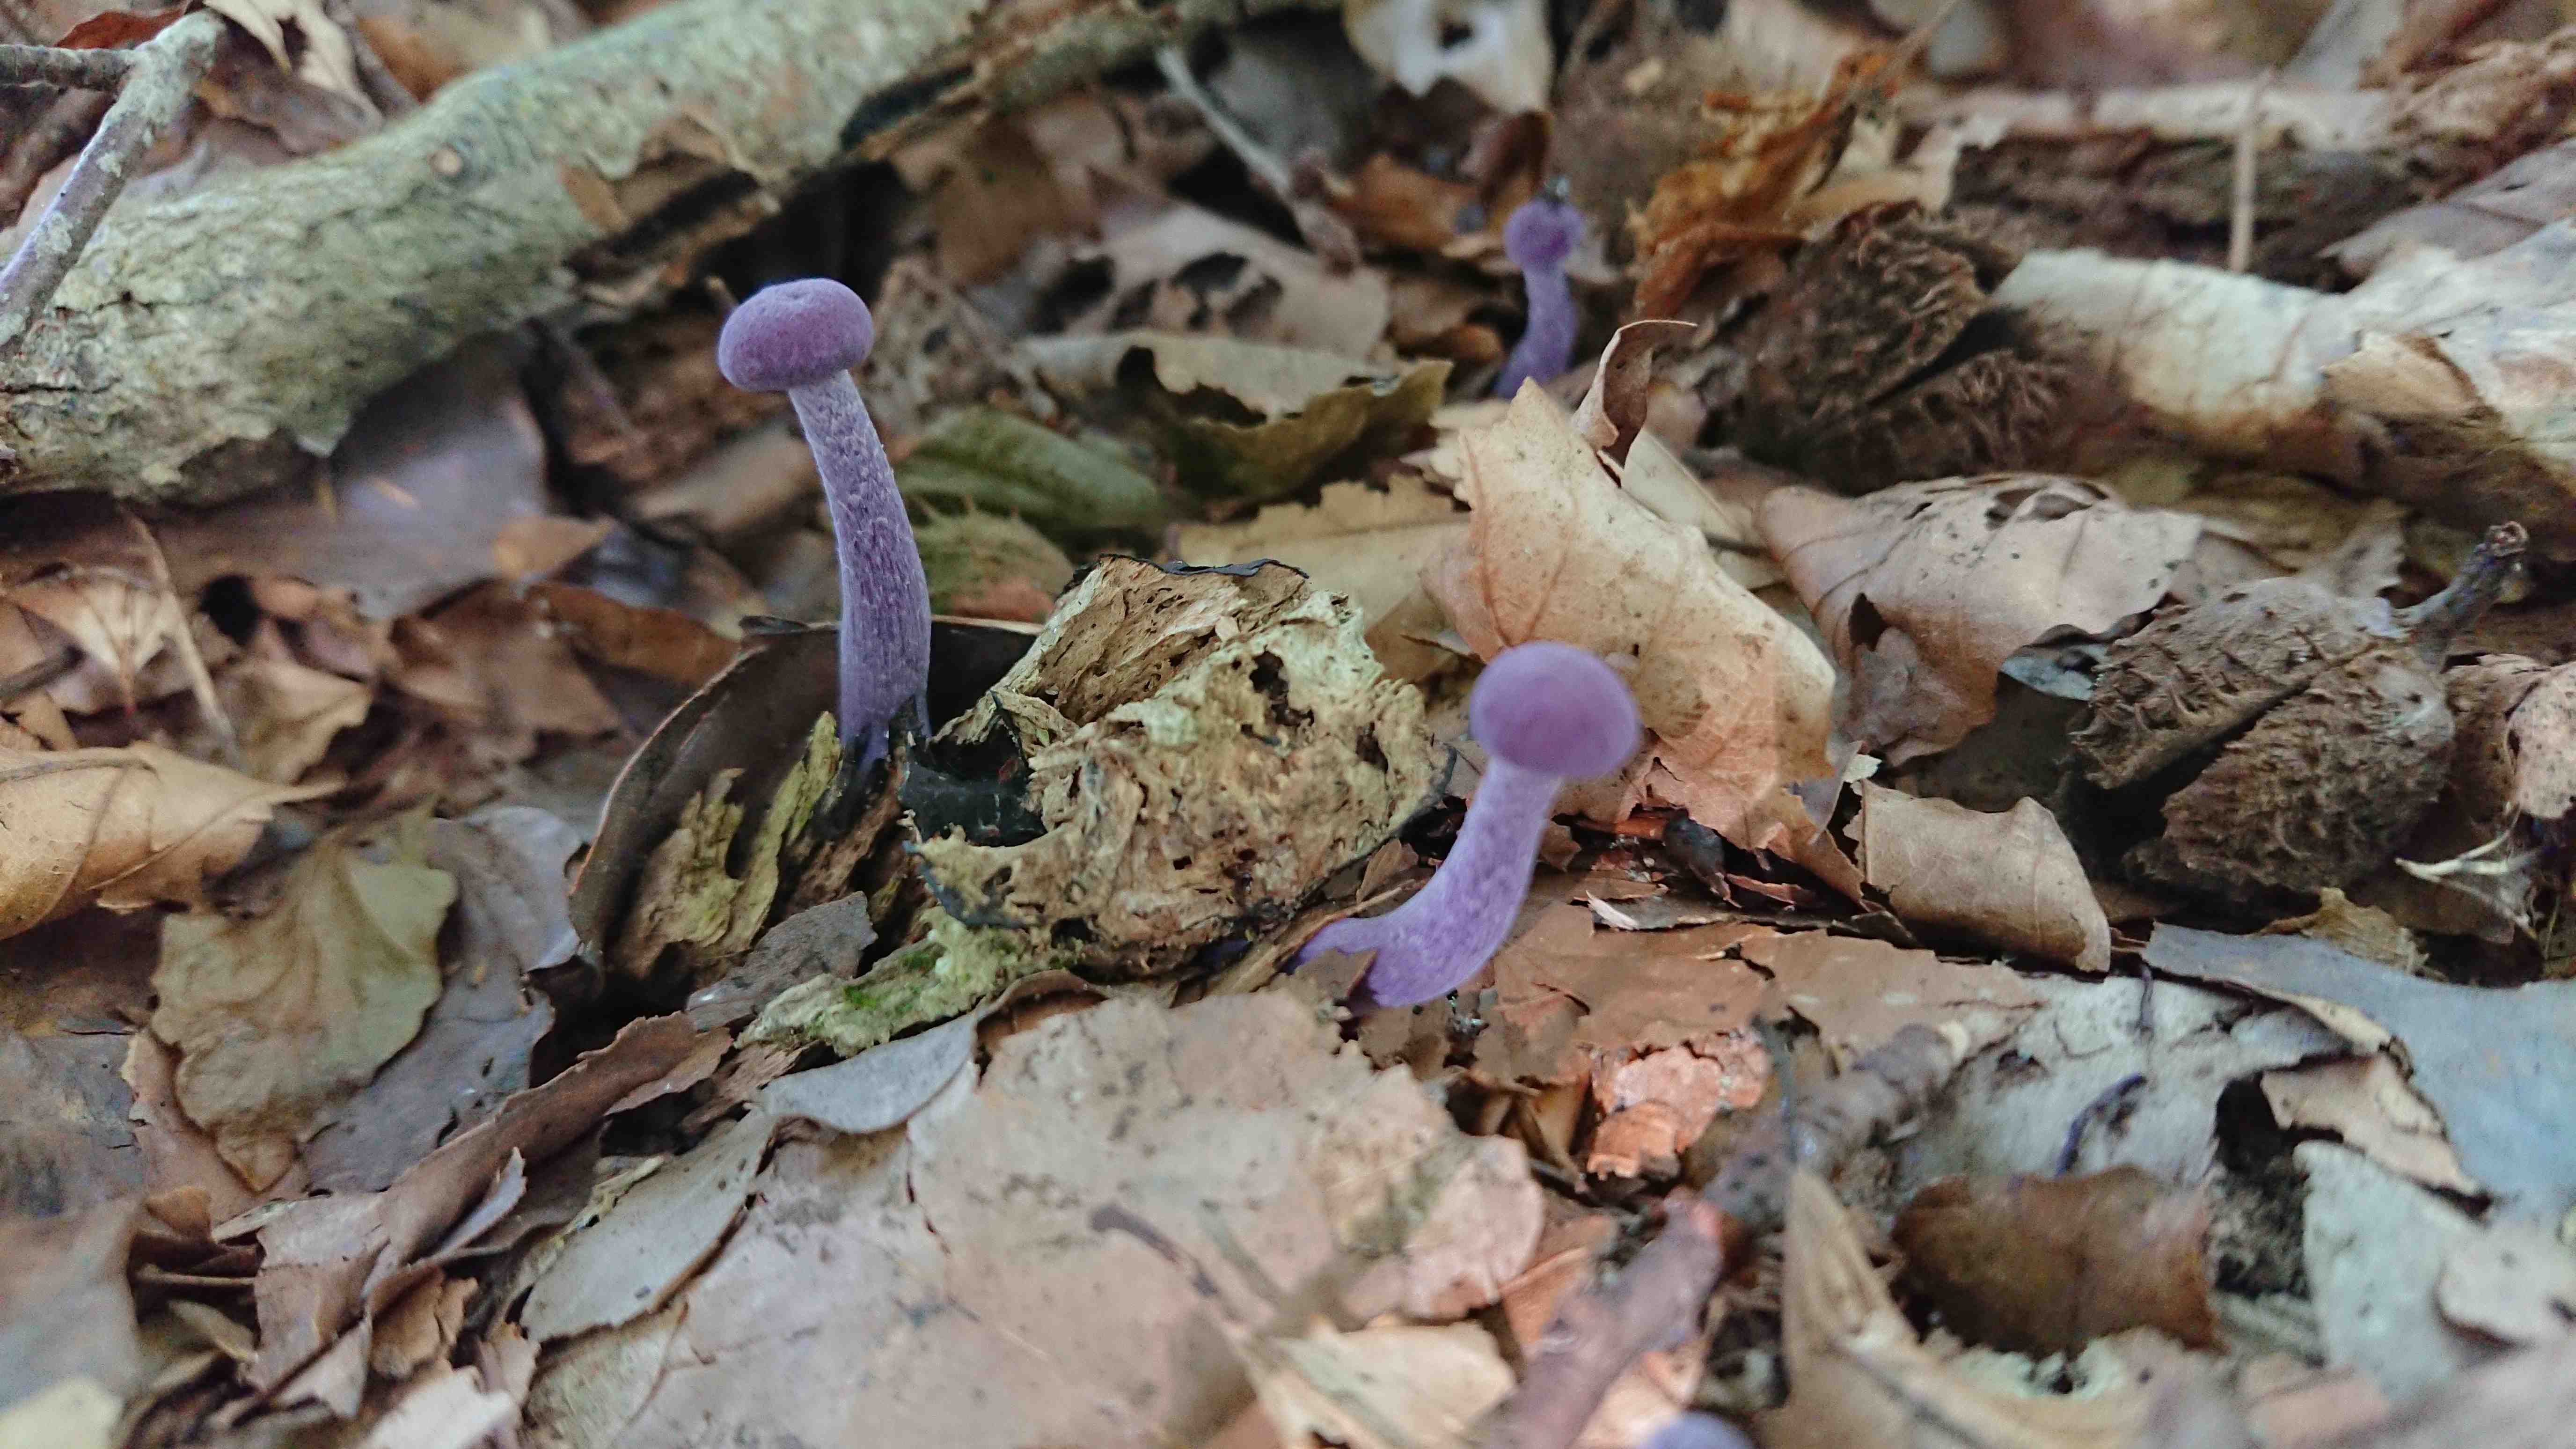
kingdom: Fungi
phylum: Basidiomycota
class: Agaricomycetes
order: Agaricales
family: Hydnangiaceae
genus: Laccaria
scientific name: Laccaria amethystina
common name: violet ametysthat
